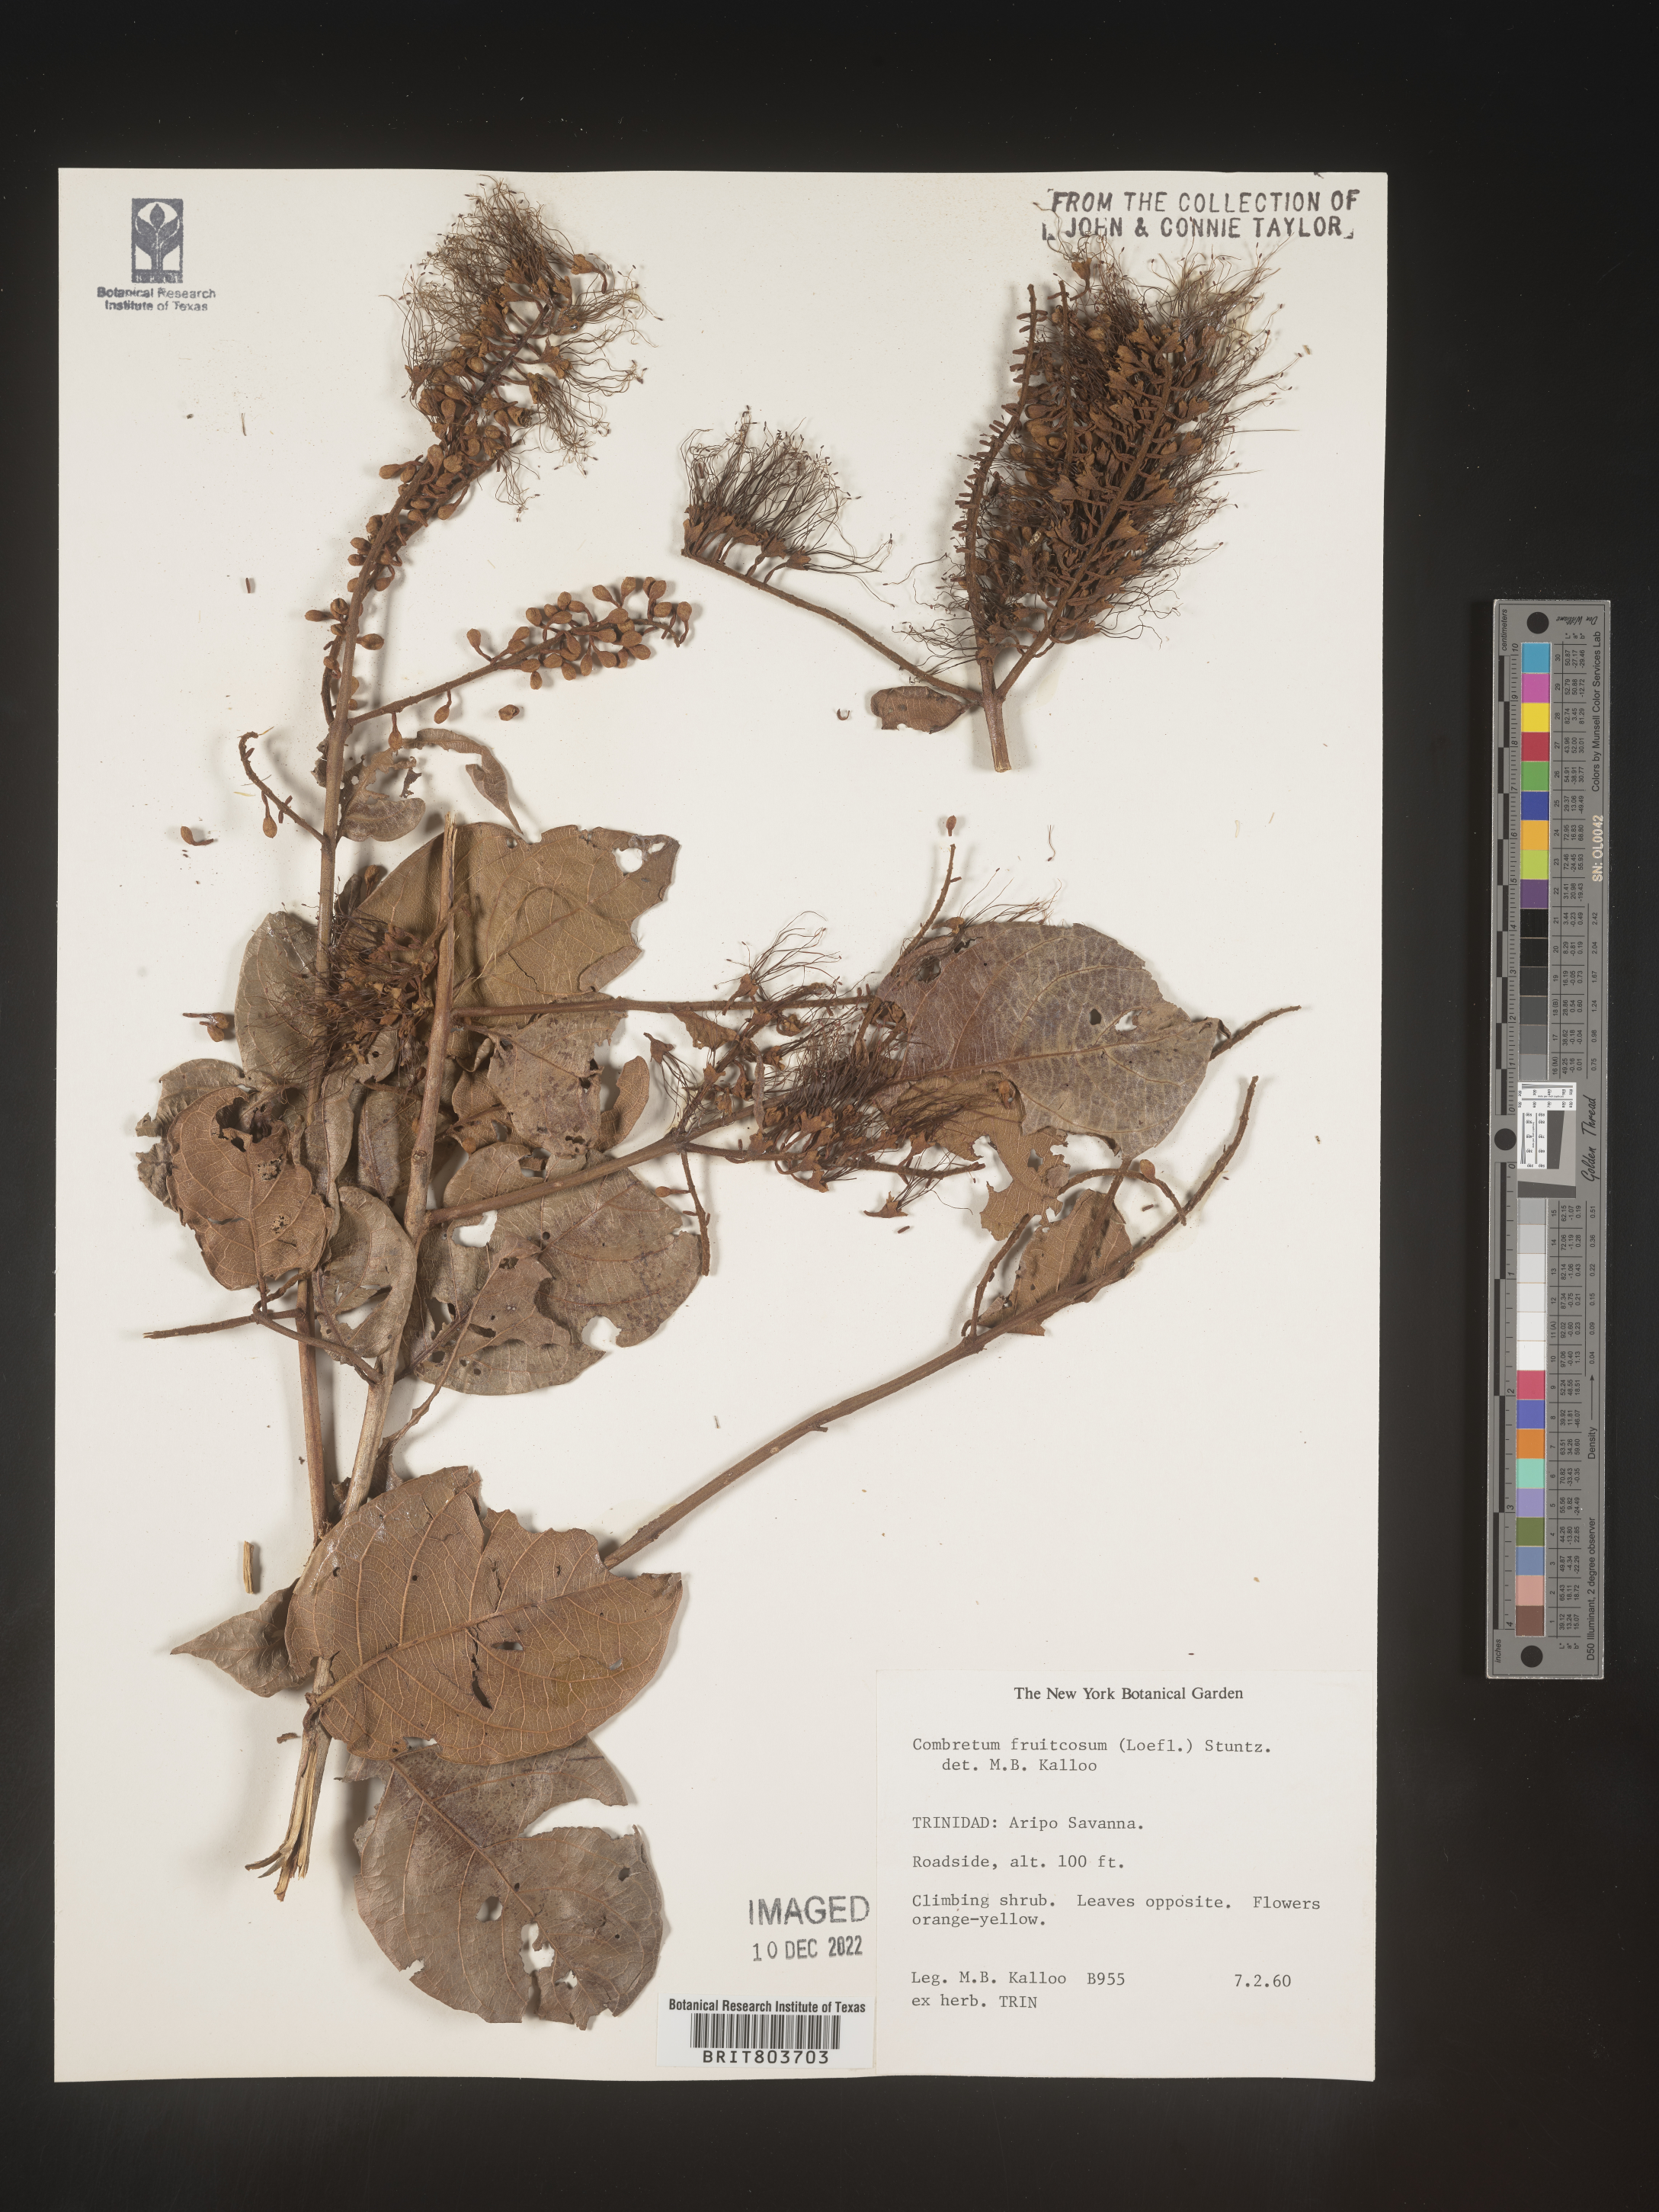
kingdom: Plantae
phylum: Tracheophyta
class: Magnoliopsida
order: Myrtales
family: Combretaceae
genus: Combretum
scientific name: Combretum
